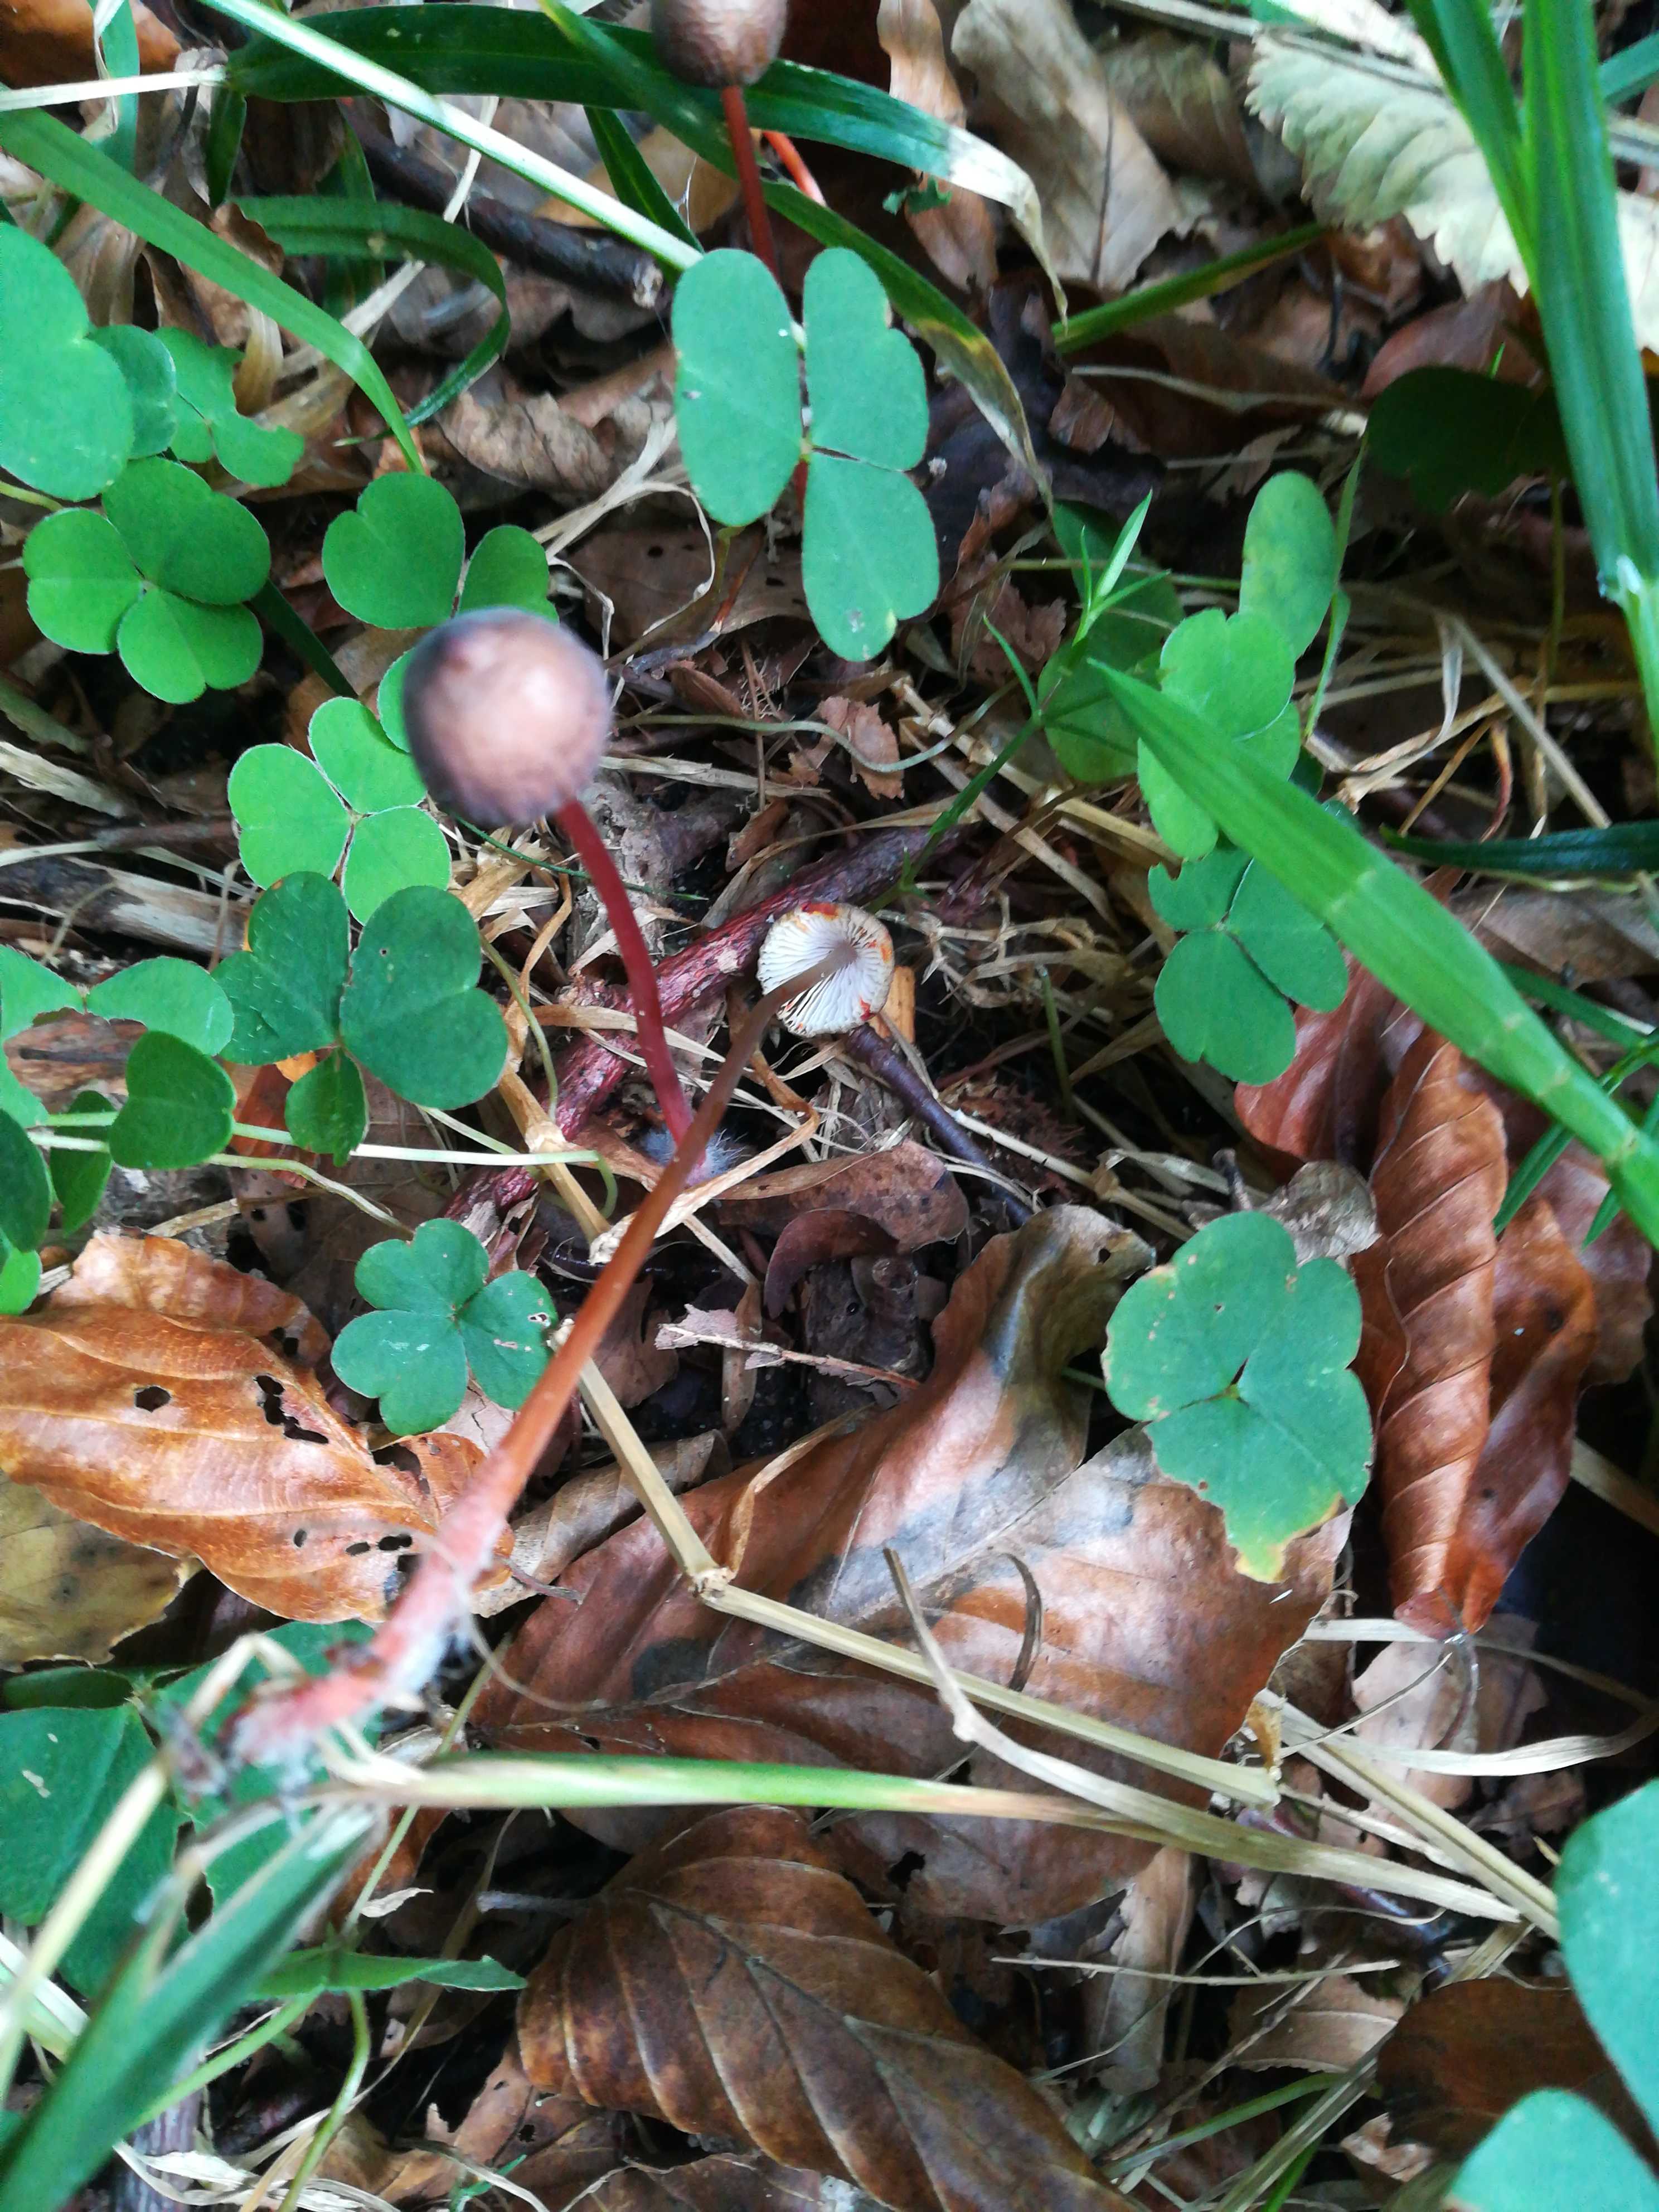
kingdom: Fungi
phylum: Basidiomycota
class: Agaricomycetes
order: Agaricales
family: Mycenaceae
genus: Mycena
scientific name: Mycena crocata
